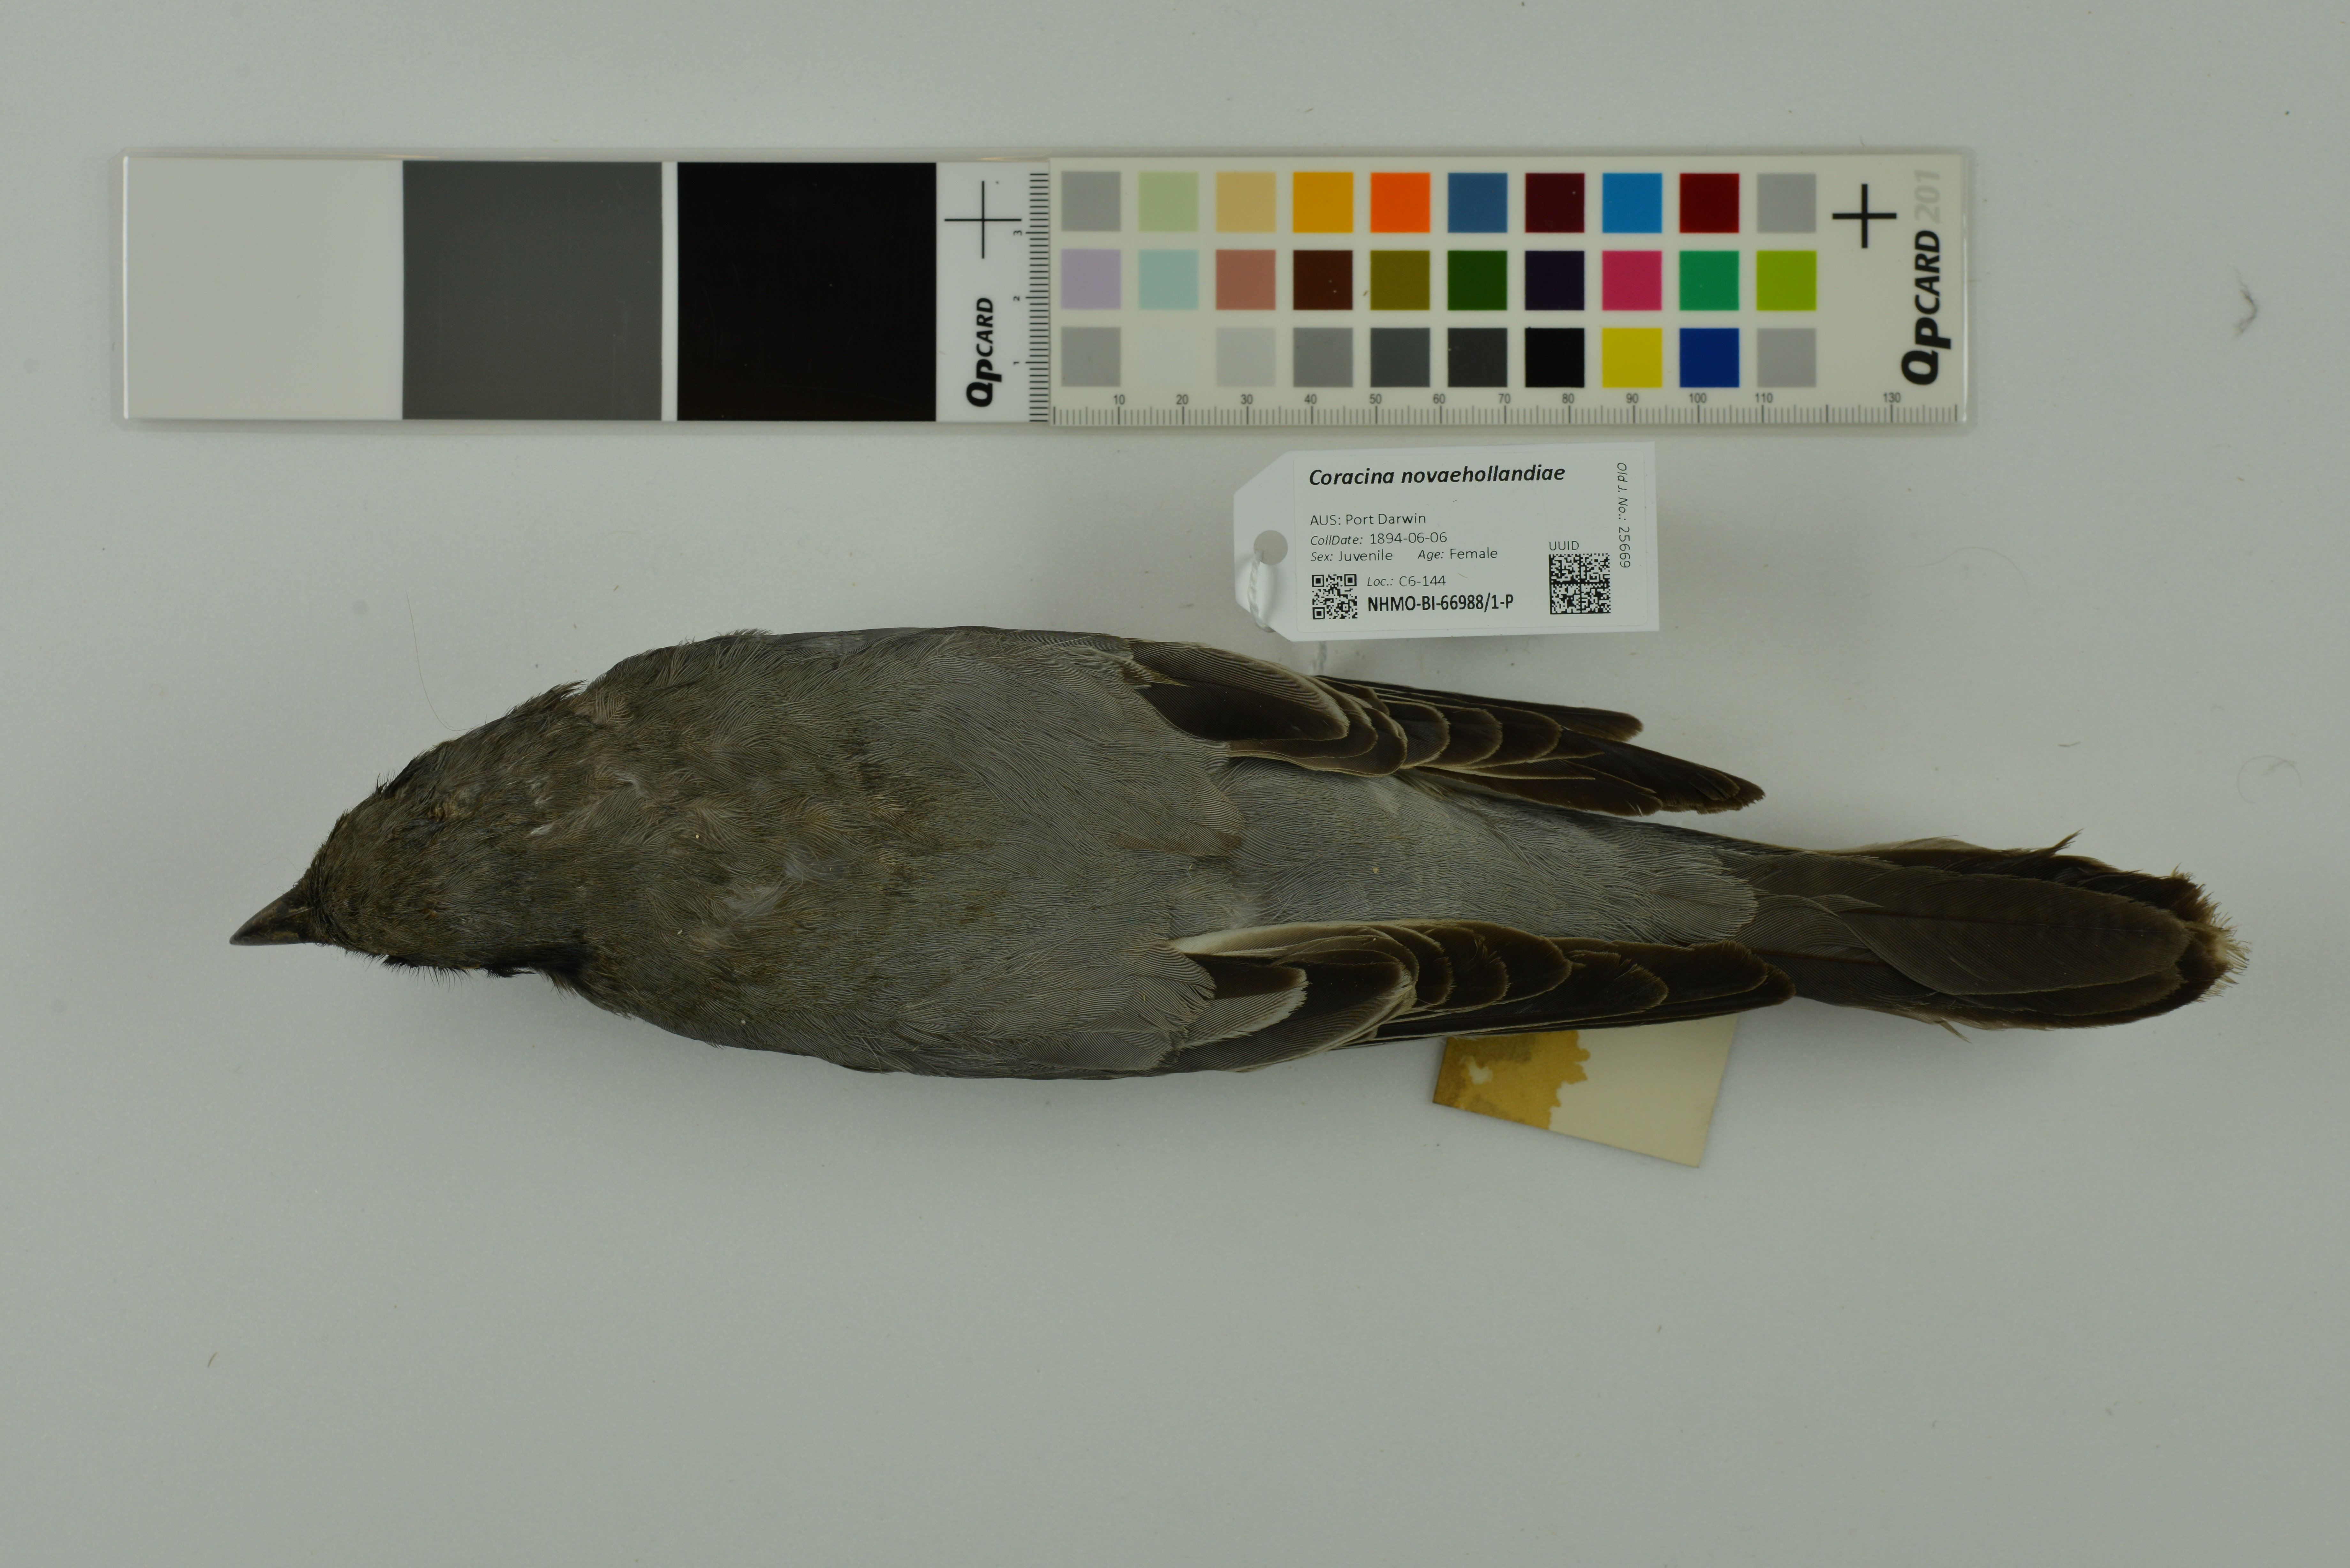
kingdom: Animalia
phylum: Chordata
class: Aves
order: Passeriformes
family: Campephagidae
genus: Coracina
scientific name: Coracina novaehollandiae
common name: Black-faced cuckooshrike
